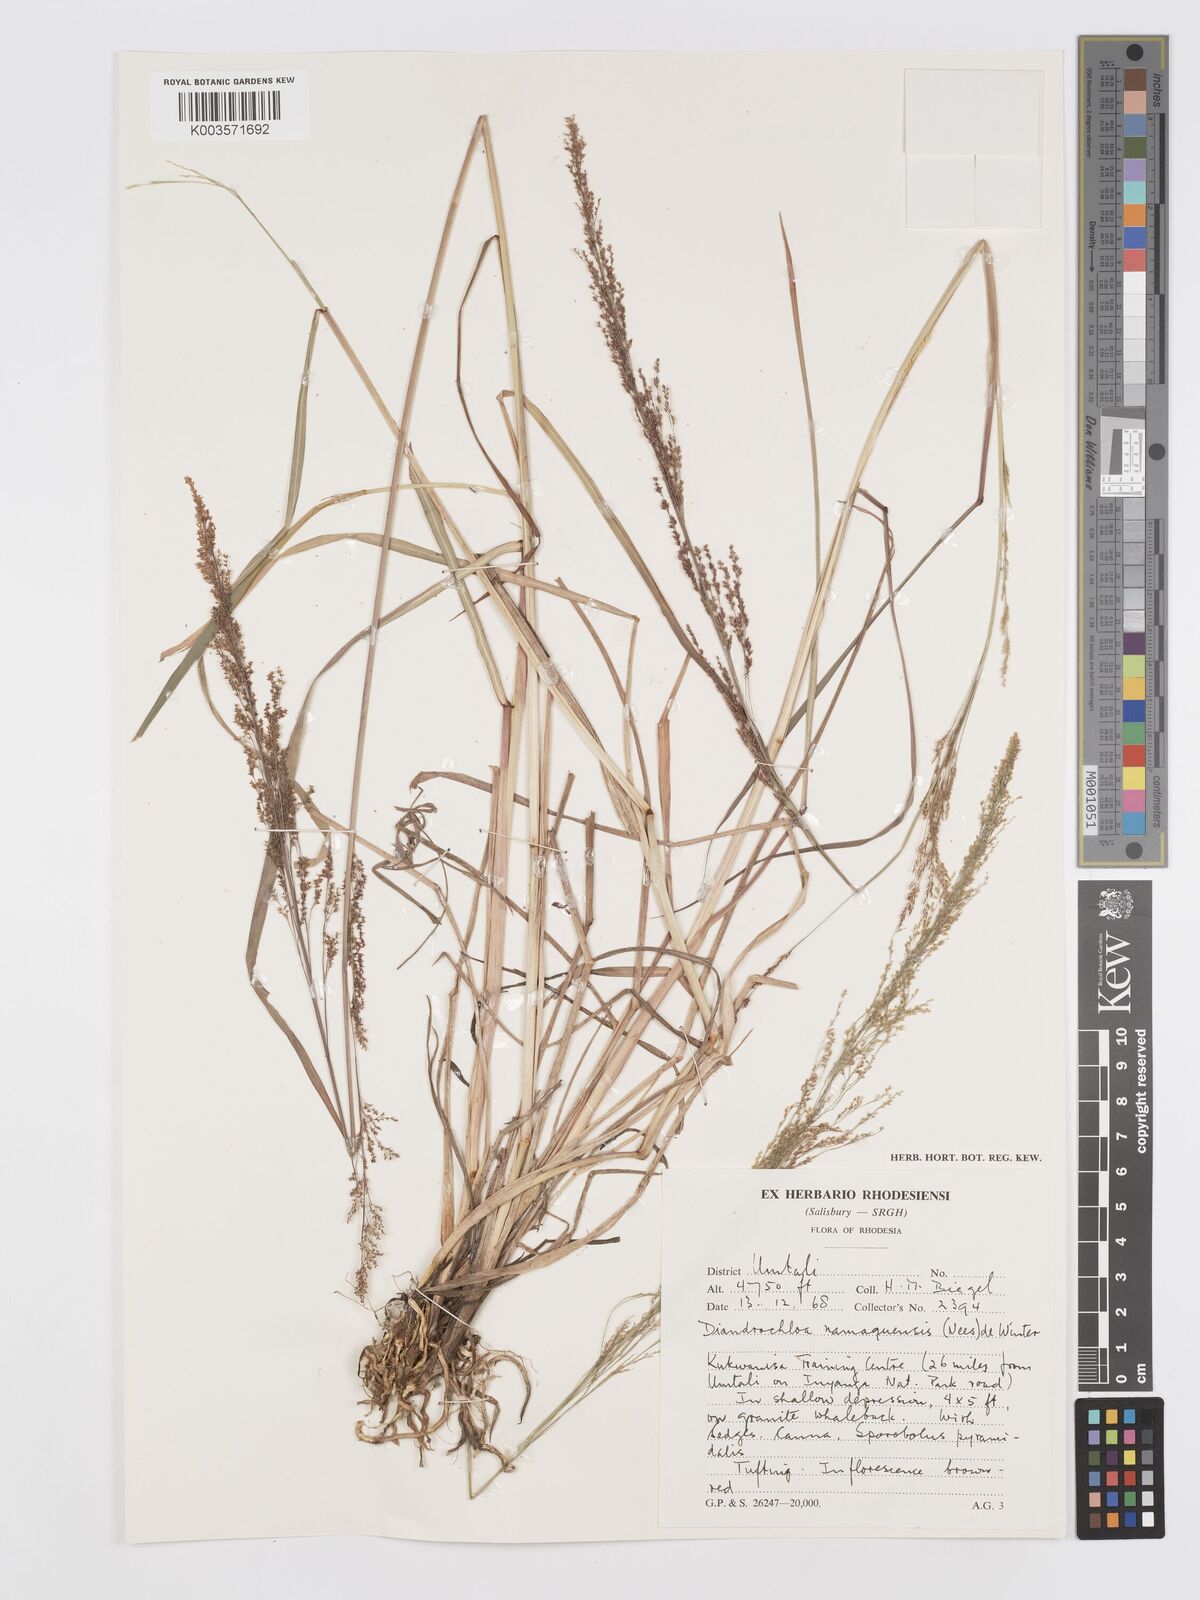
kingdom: Plantae
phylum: Tracheophyta
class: Liliopsida
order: Poales
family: Poaceae
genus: Eragrostis
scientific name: Eragrostis japonica
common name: Pond lovegrass
